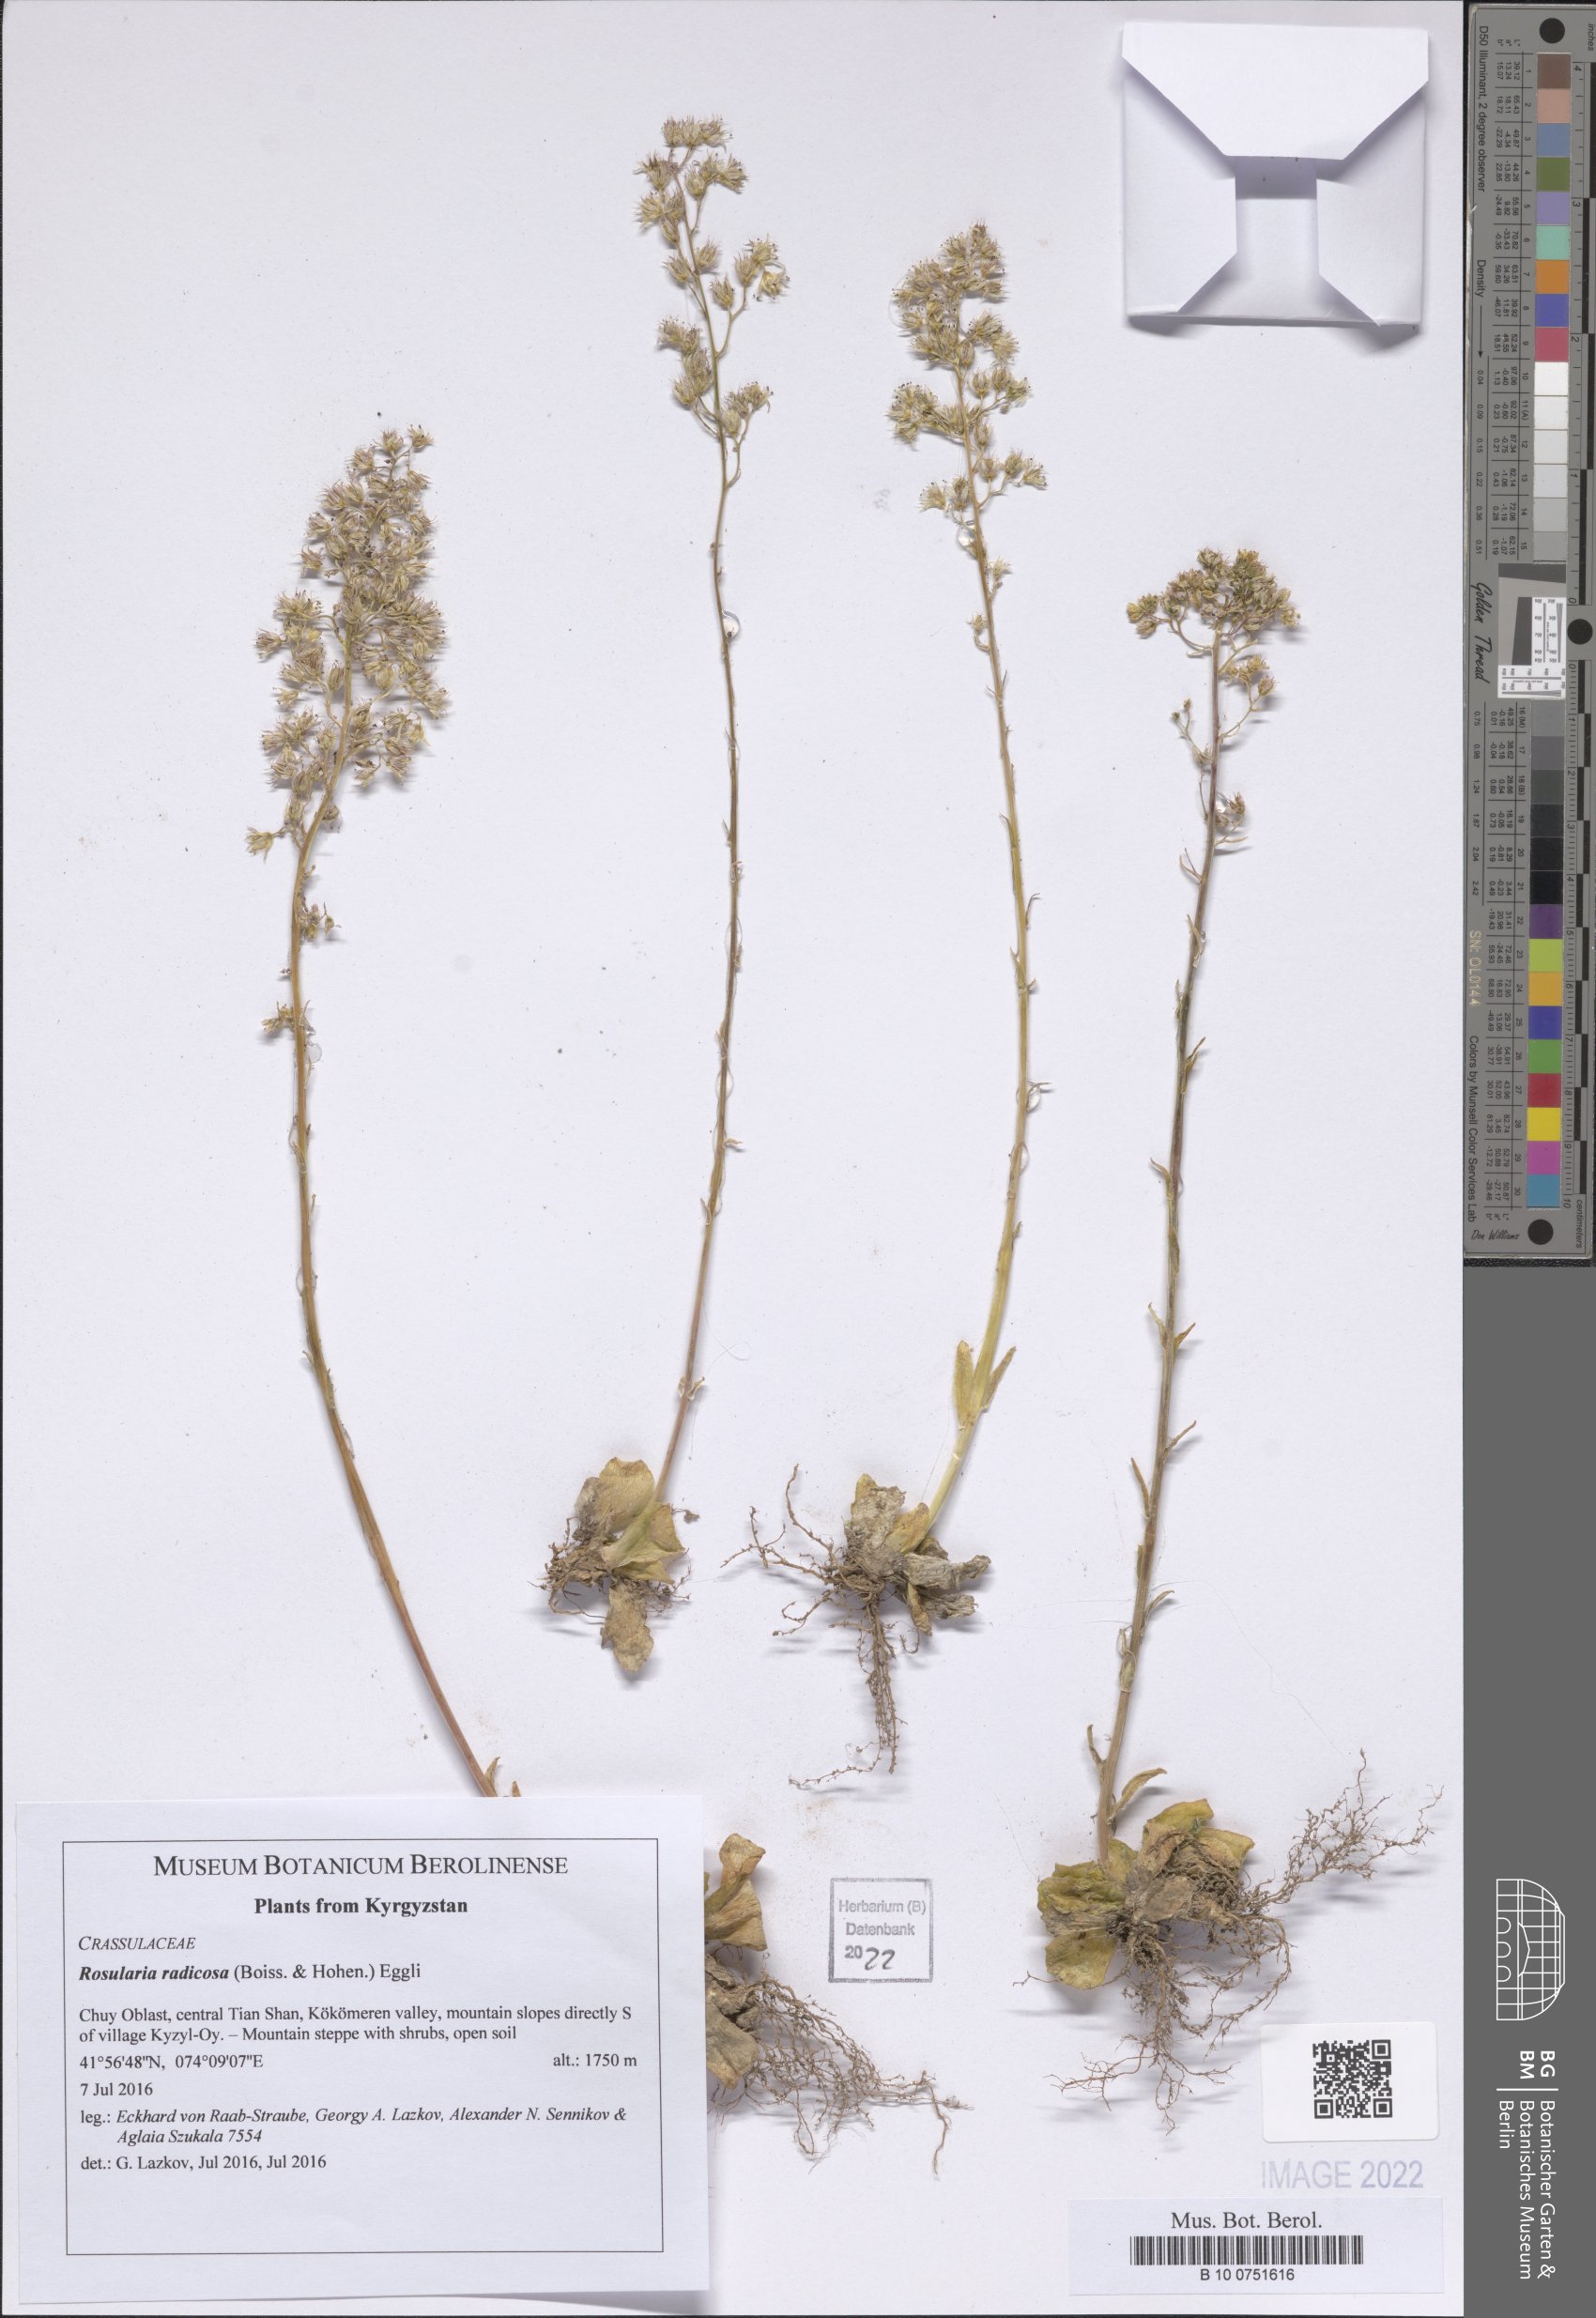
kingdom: Plantae
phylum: Tracheophyta
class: Magnoliopsida
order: Saxifragales
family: Crassulaceae
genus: Rosularia
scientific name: Rosularia radicosa
